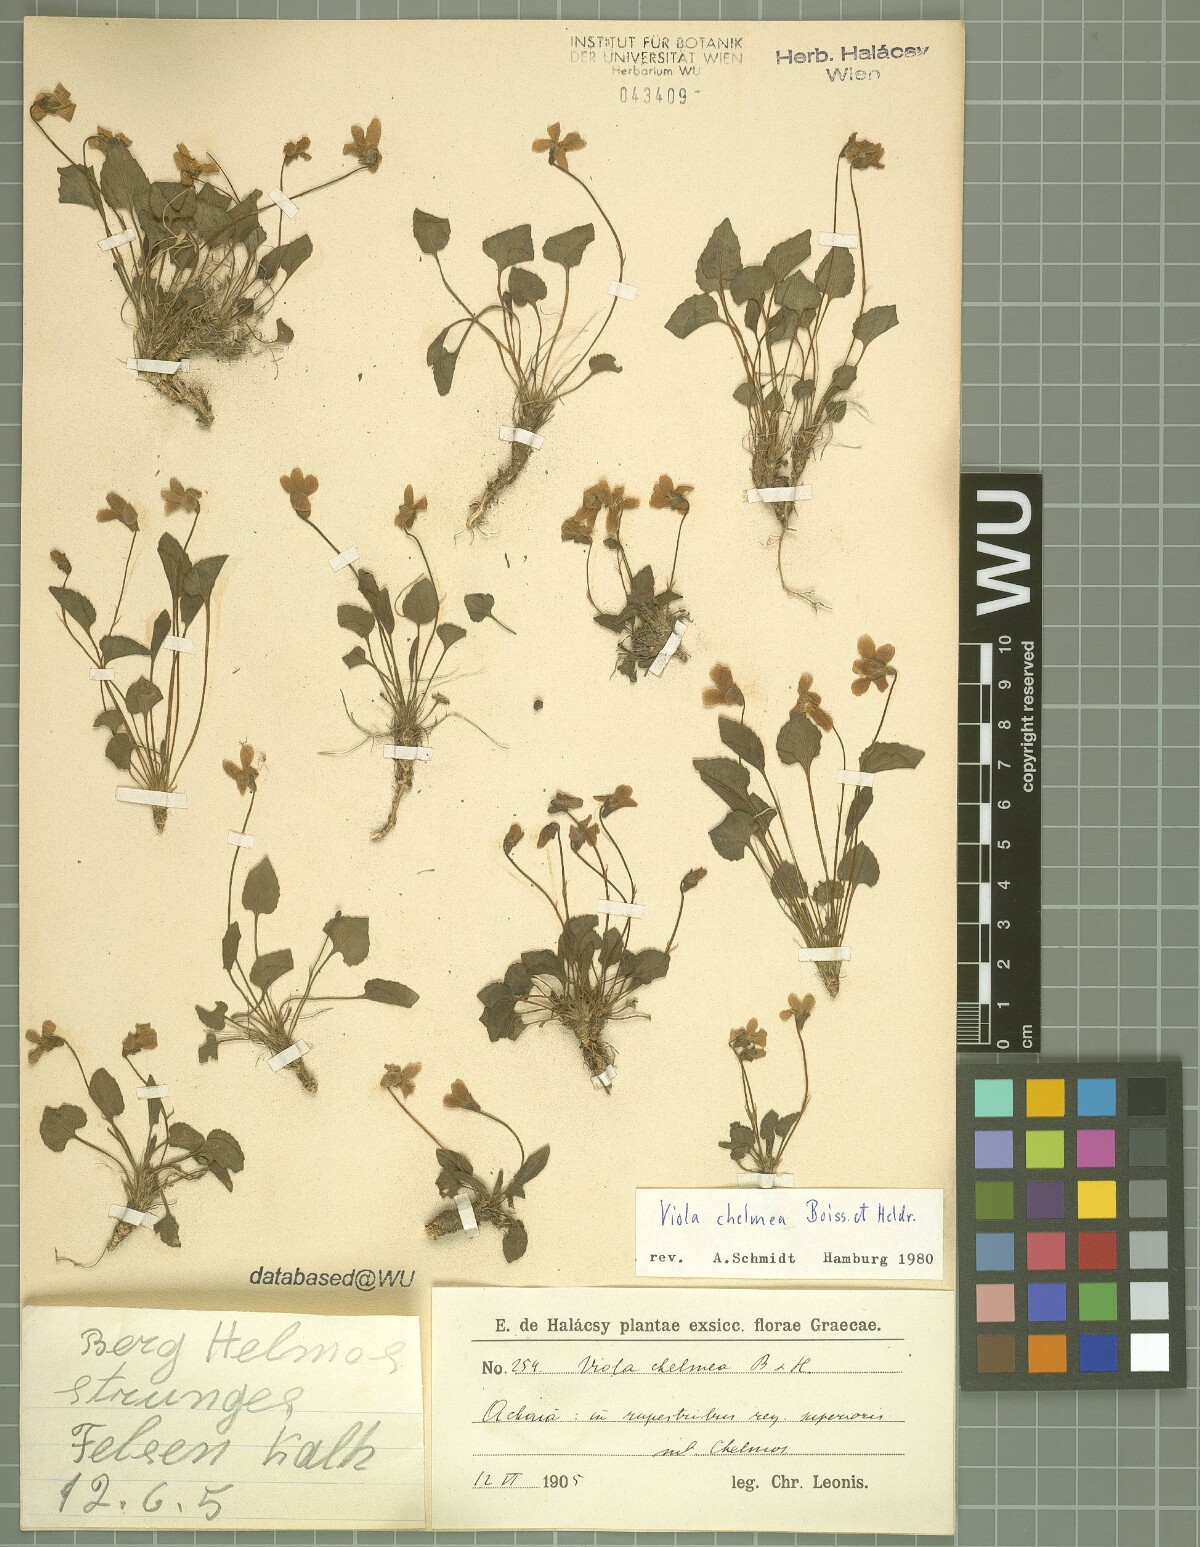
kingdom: Plantae
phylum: Tracheophyta
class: Magnoliopsida
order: Malpighiales
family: Violaceae
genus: Viola
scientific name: Viola chelmea
